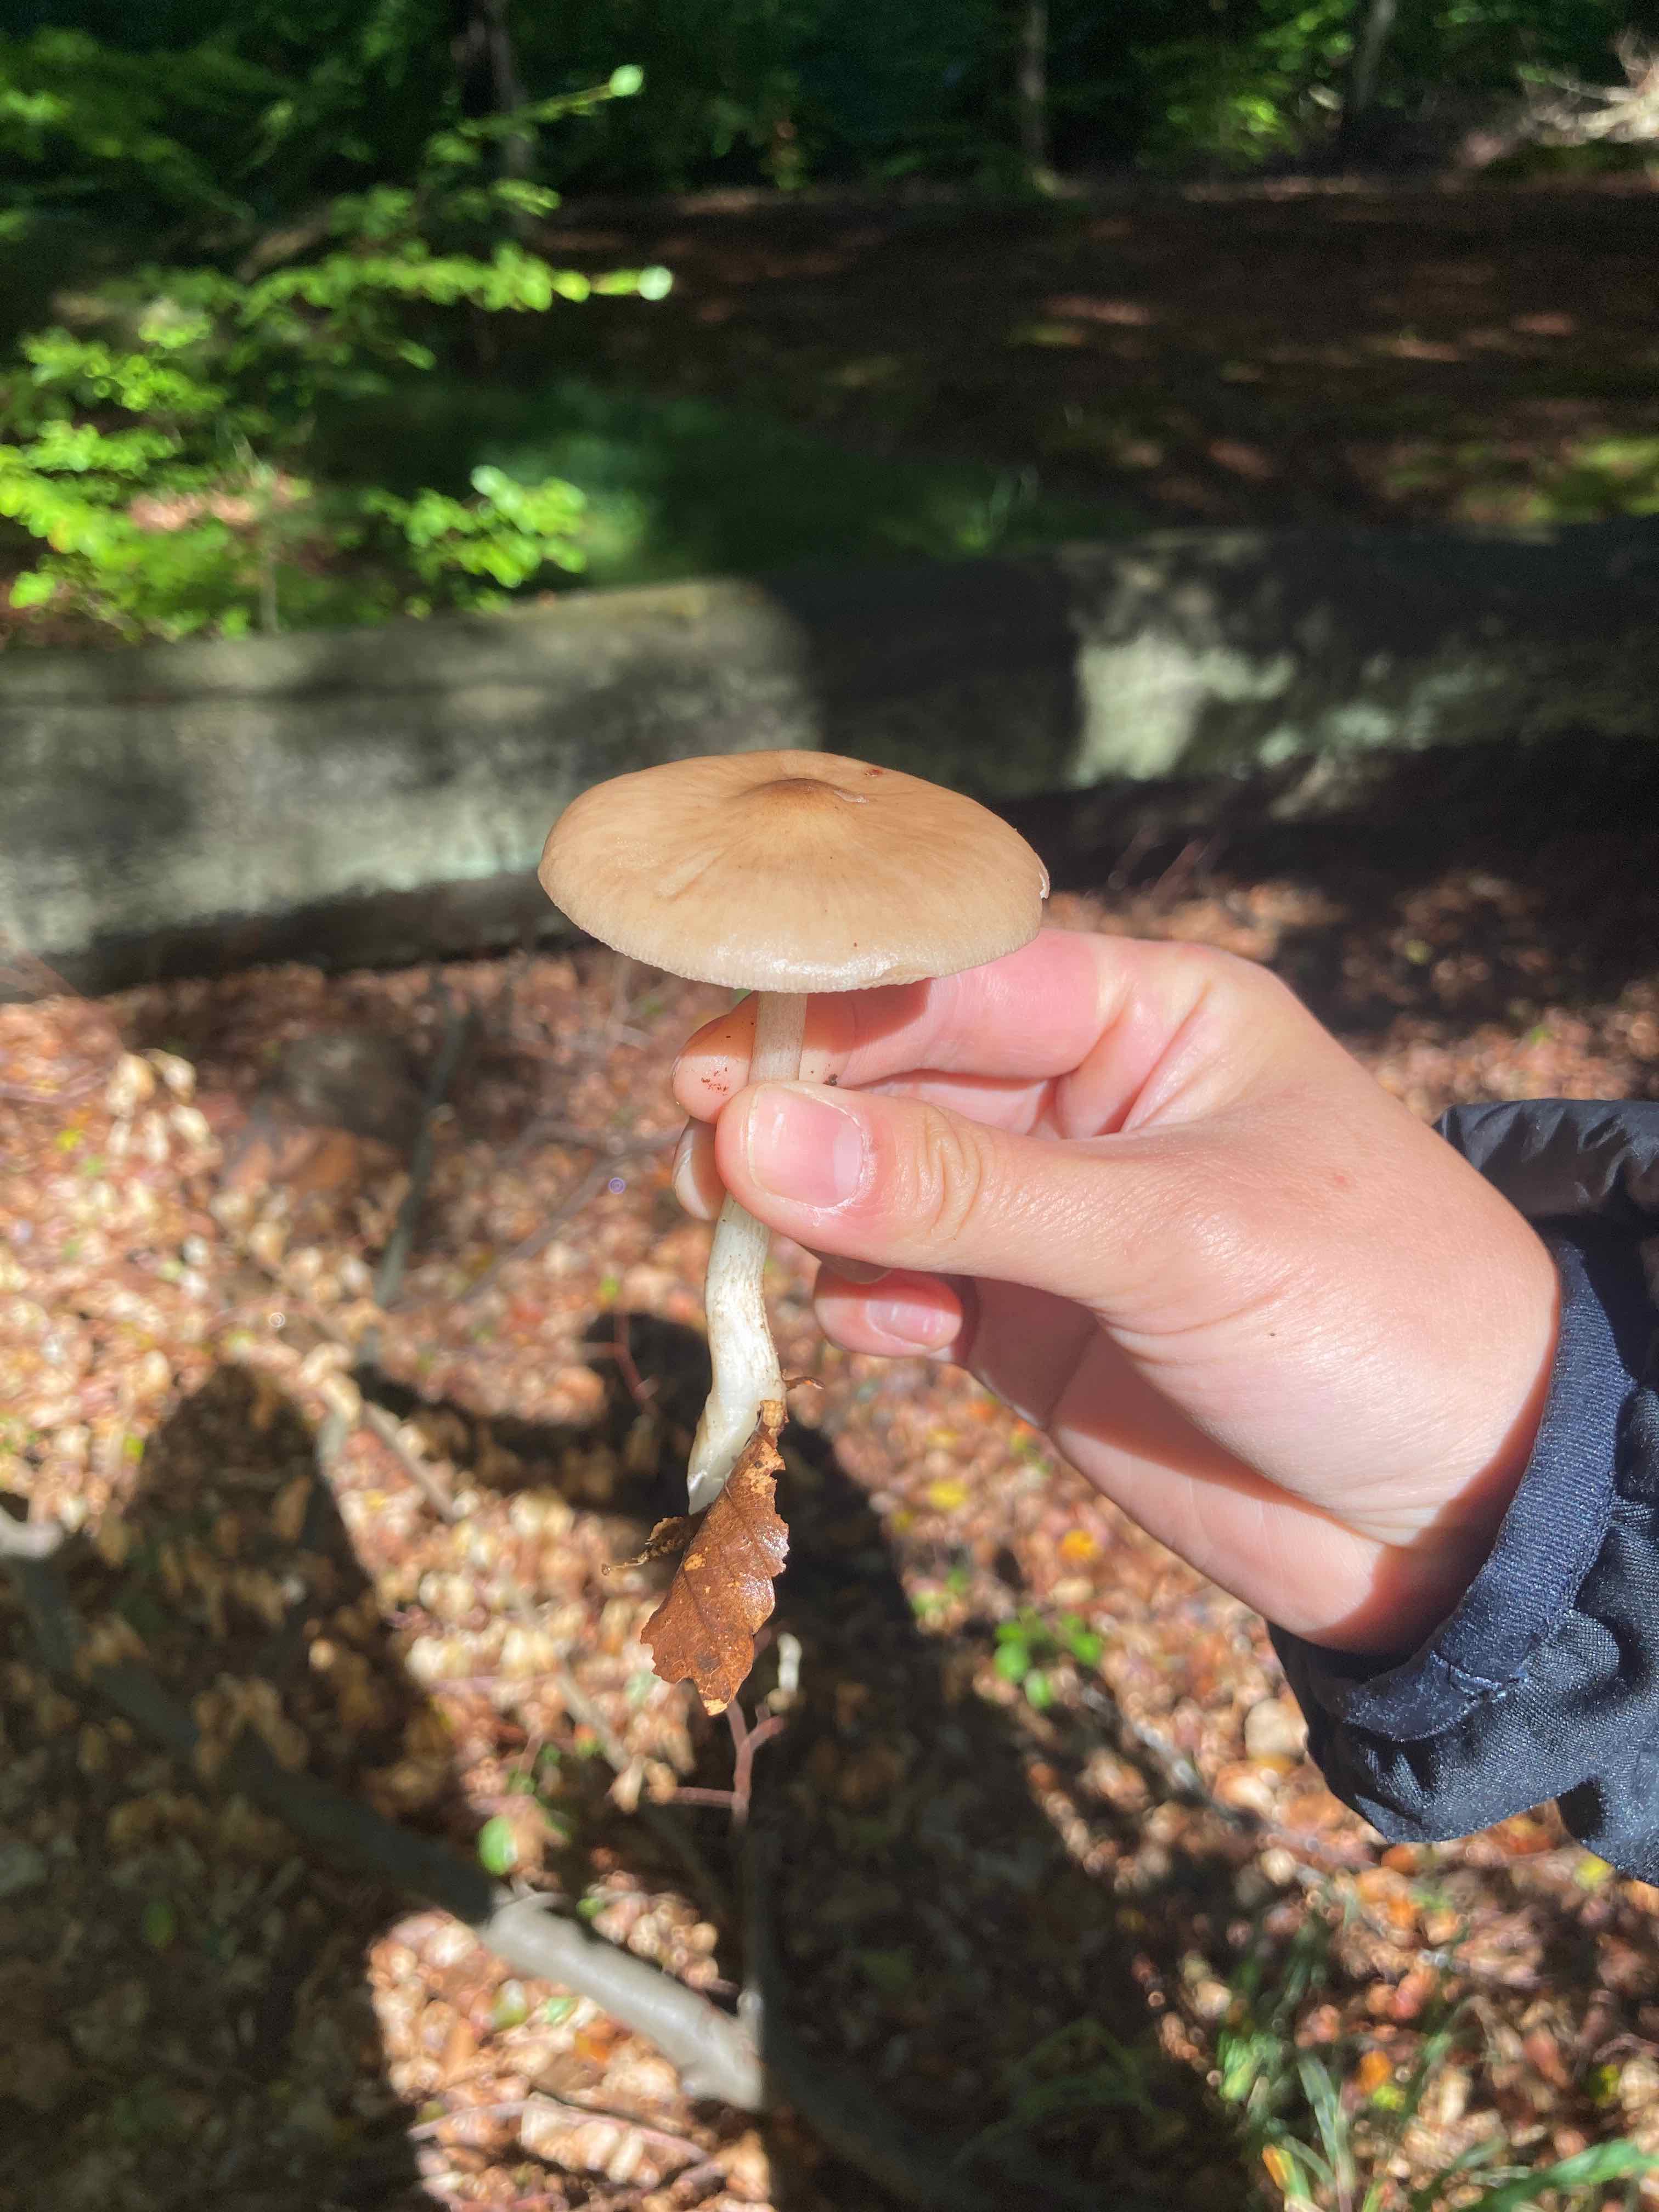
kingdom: Fungi
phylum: Basidiomycota
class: Agaricomycetes
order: Agaricales
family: Physalacriaceae
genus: Hymenopellis
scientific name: Hymenopellis radicata
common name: almindelig pælerodshat
